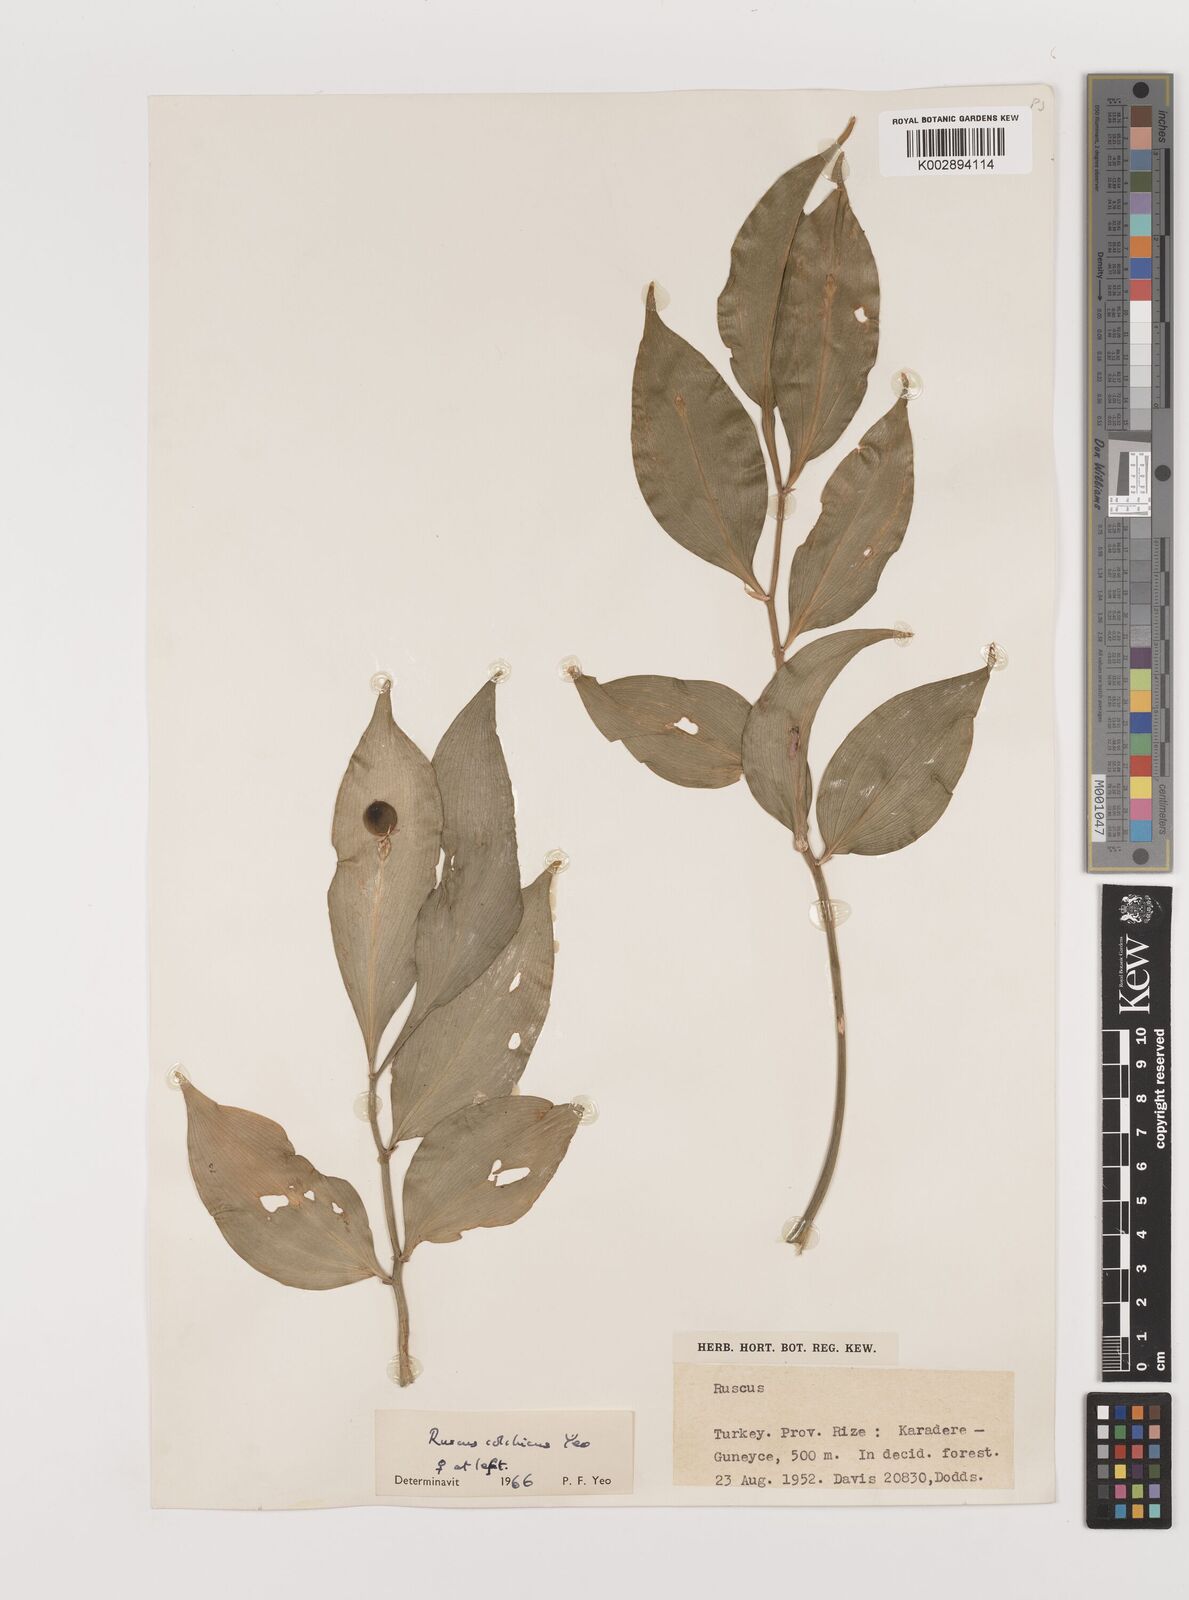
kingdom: Plantae
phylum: Tracheophyta
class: Liliopsida
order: Asparagales
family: Asparagaceae
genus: Ruscus
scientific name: Ruscus colchicus
